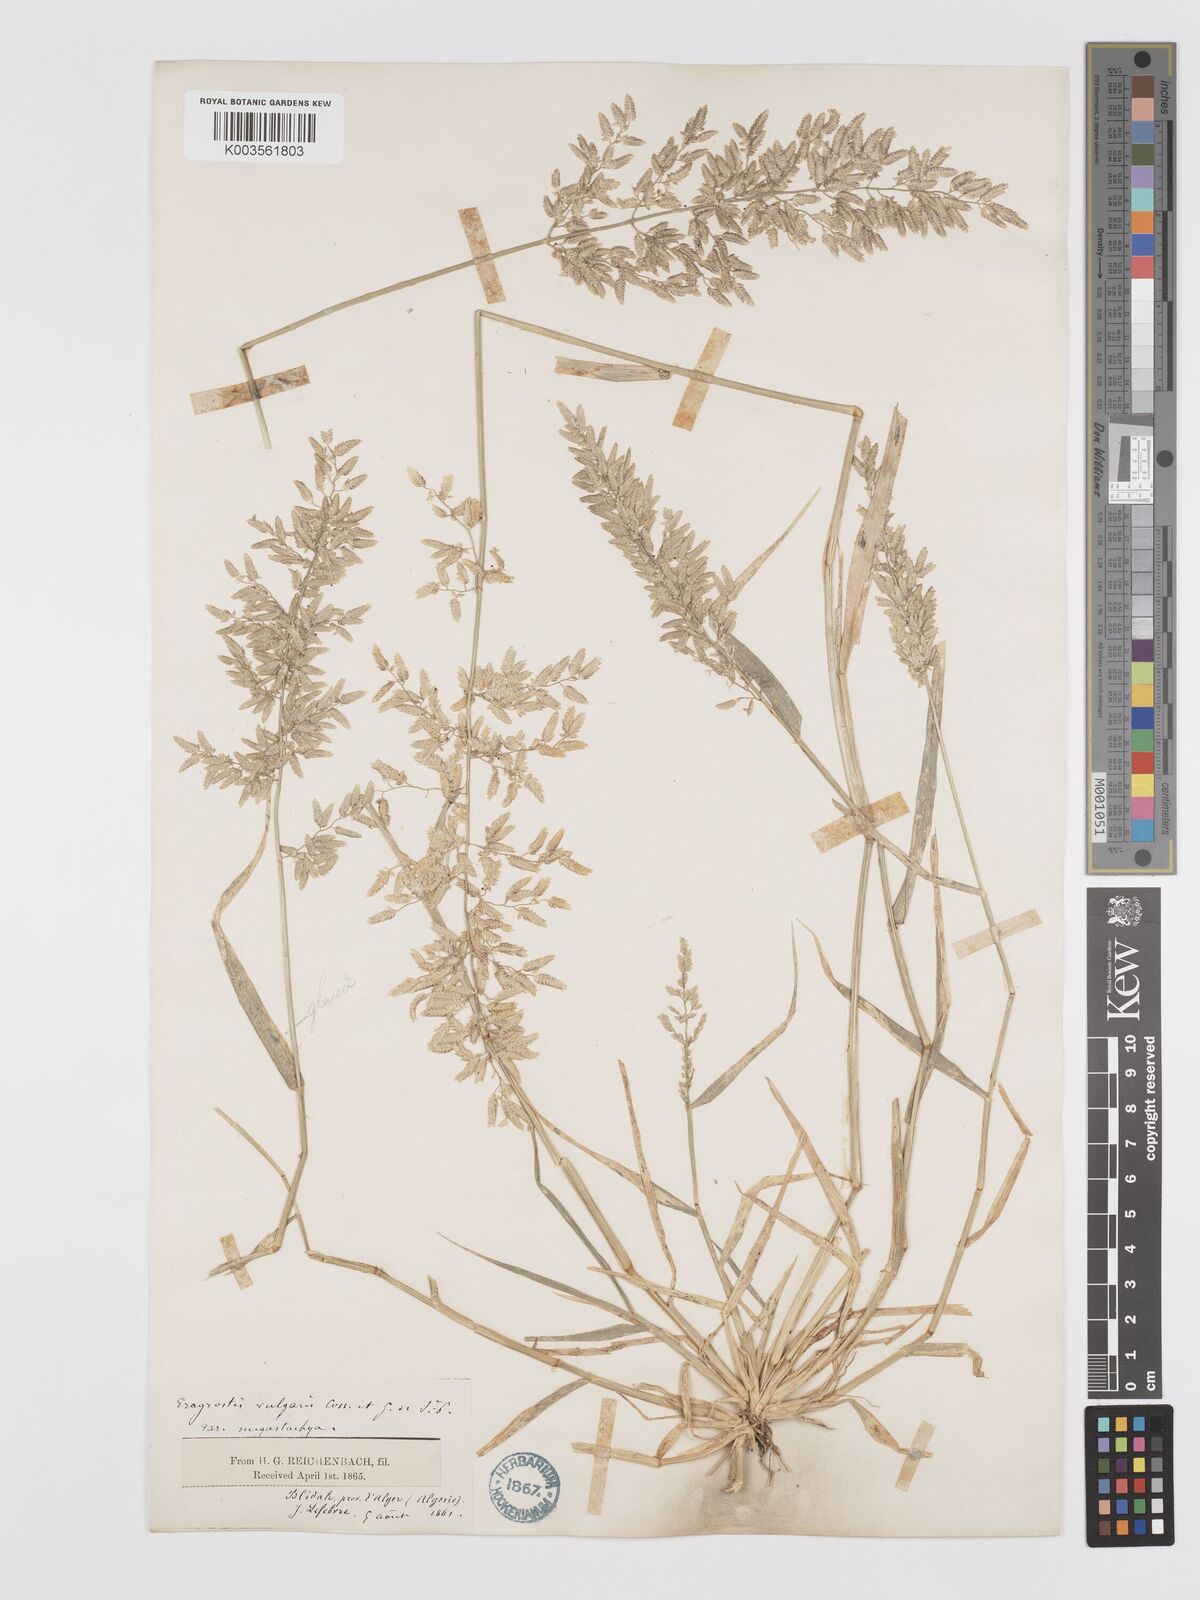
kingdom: Plantae
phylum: Tracheophyta
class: Liliopsida
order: Poales
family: Poaceae
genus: Eragrostis
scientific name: Eragrostis cilianensis
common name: Stinkgrass
